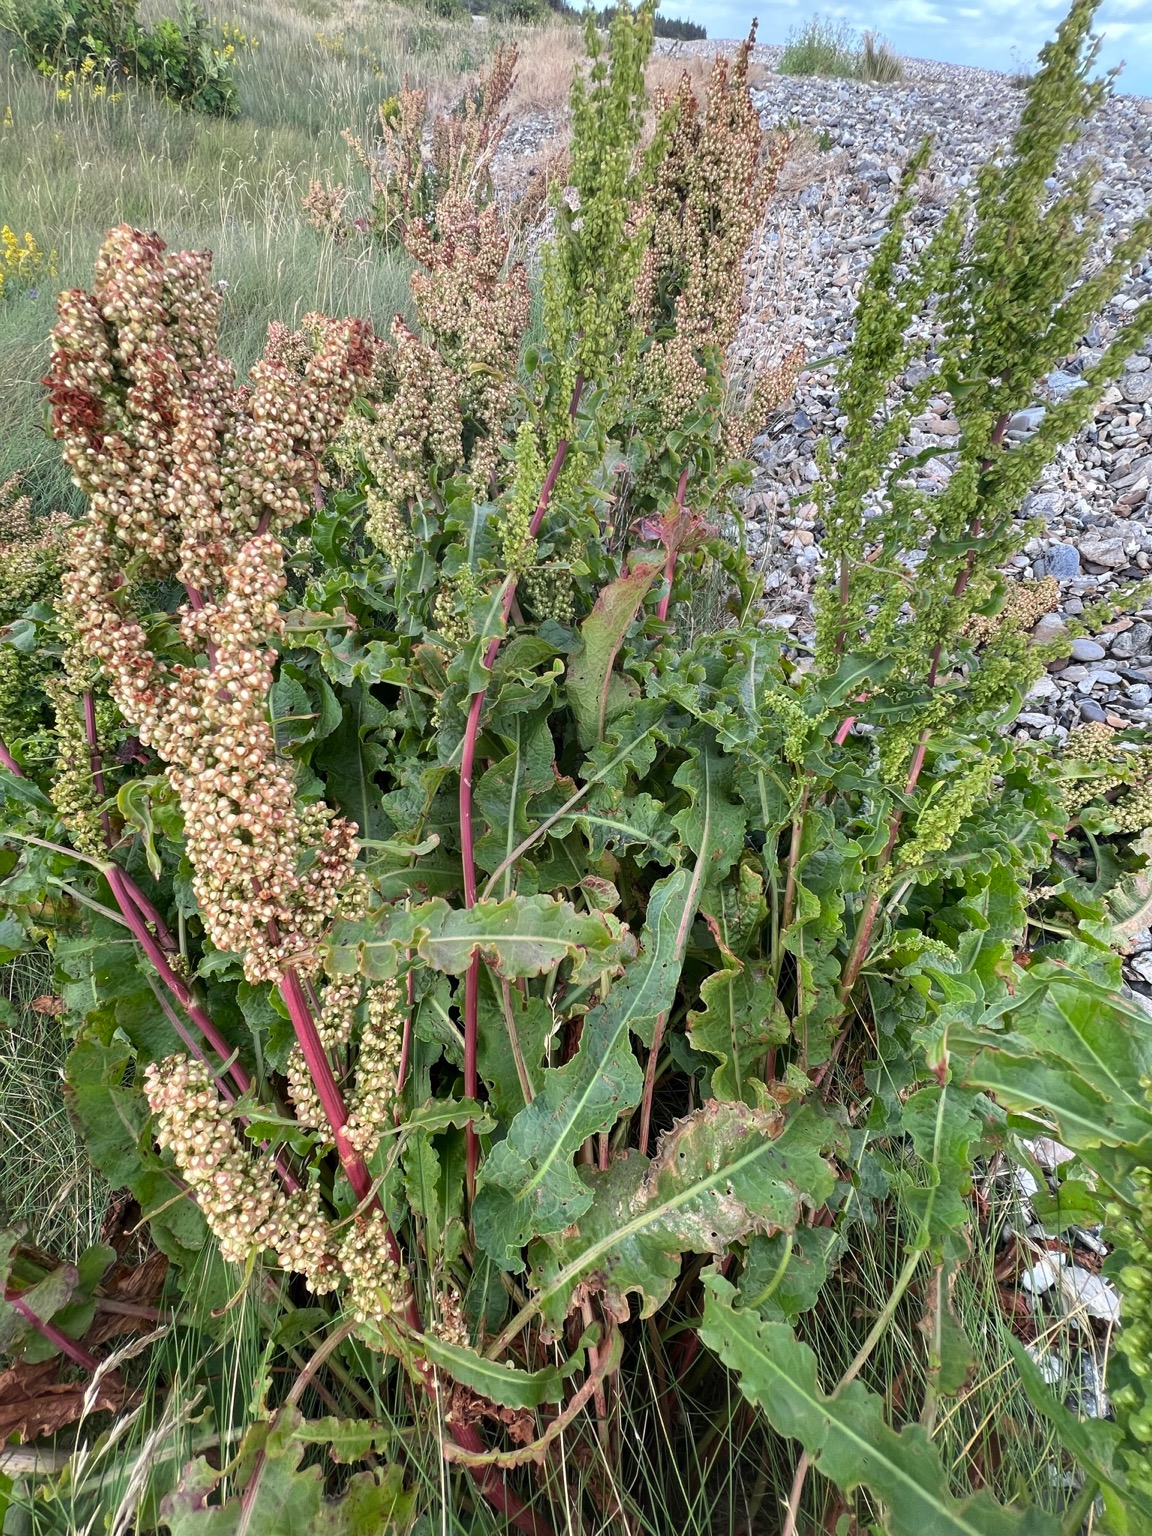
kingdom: Plantae
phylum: Tracheophyta
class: Magnoliopsida
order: Caryophyllales
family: Polygonaceae
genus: Rumex
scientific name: Rumex crispus
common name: Kruset skræppe
